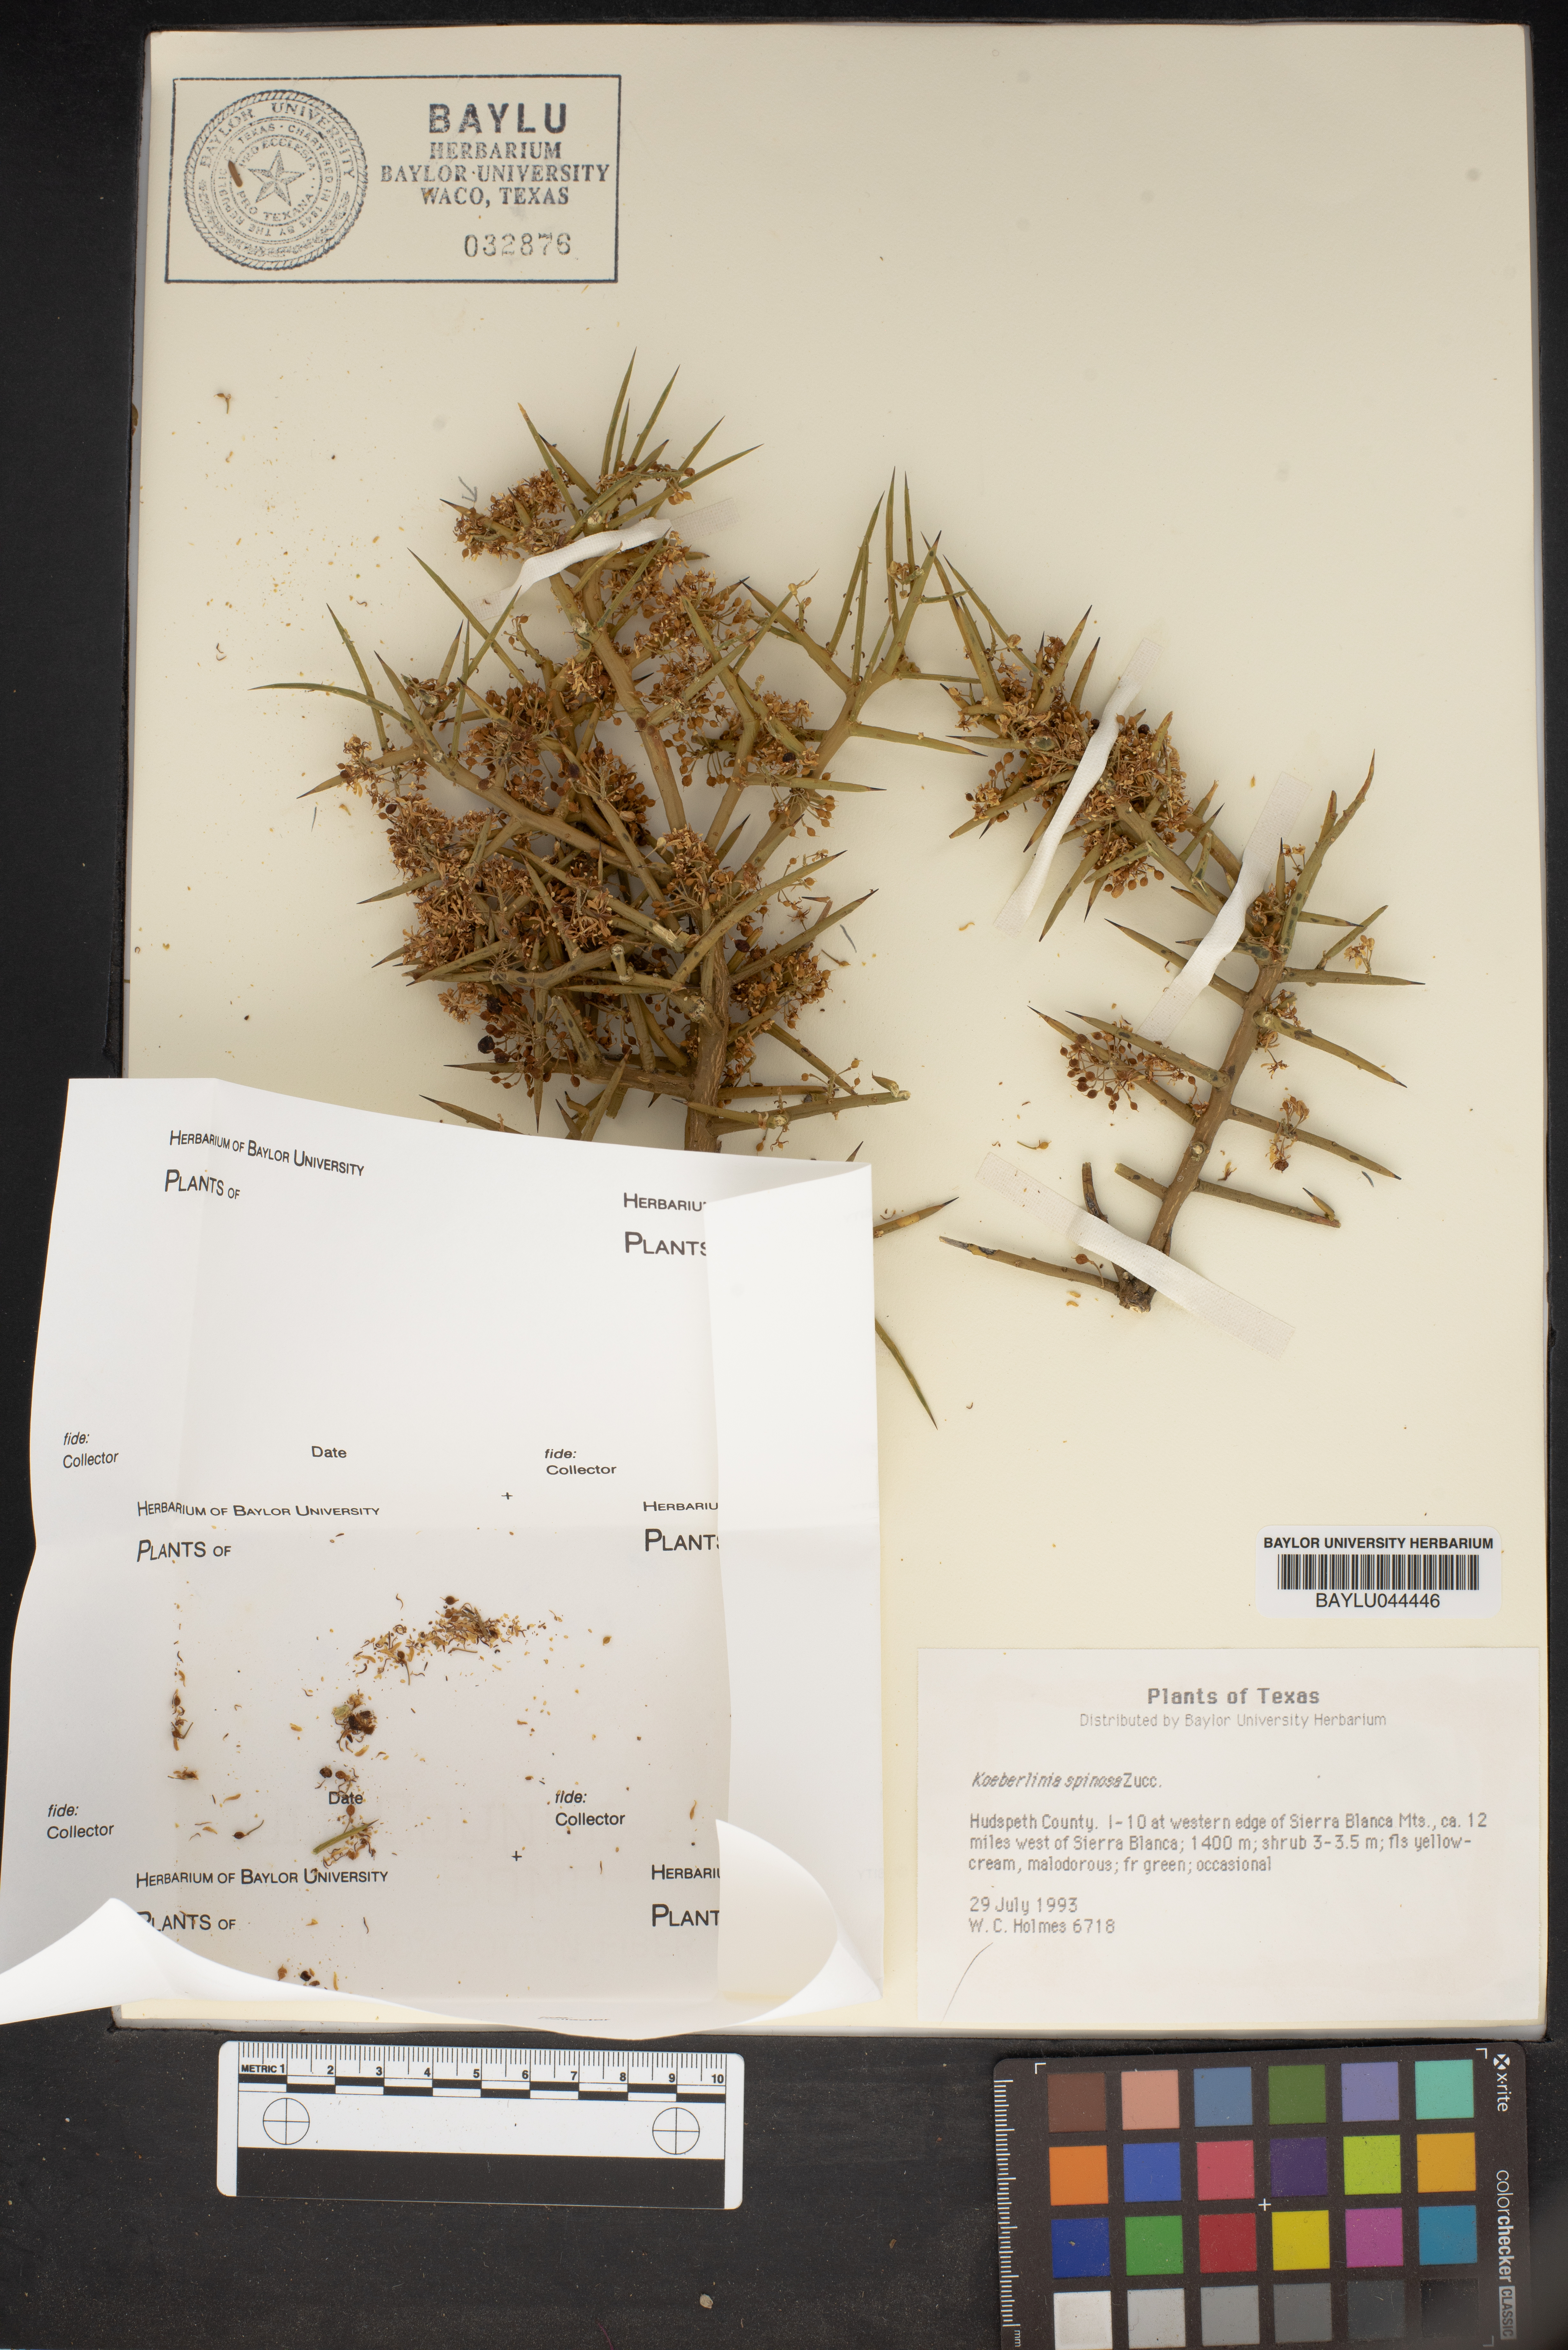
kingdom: Plantae
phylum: Tracheophyta
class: Magnoliopsida
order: Brassicales
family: Koeberliniaceae
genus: Koeberlinia
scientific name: Koeberlinia spinosa
